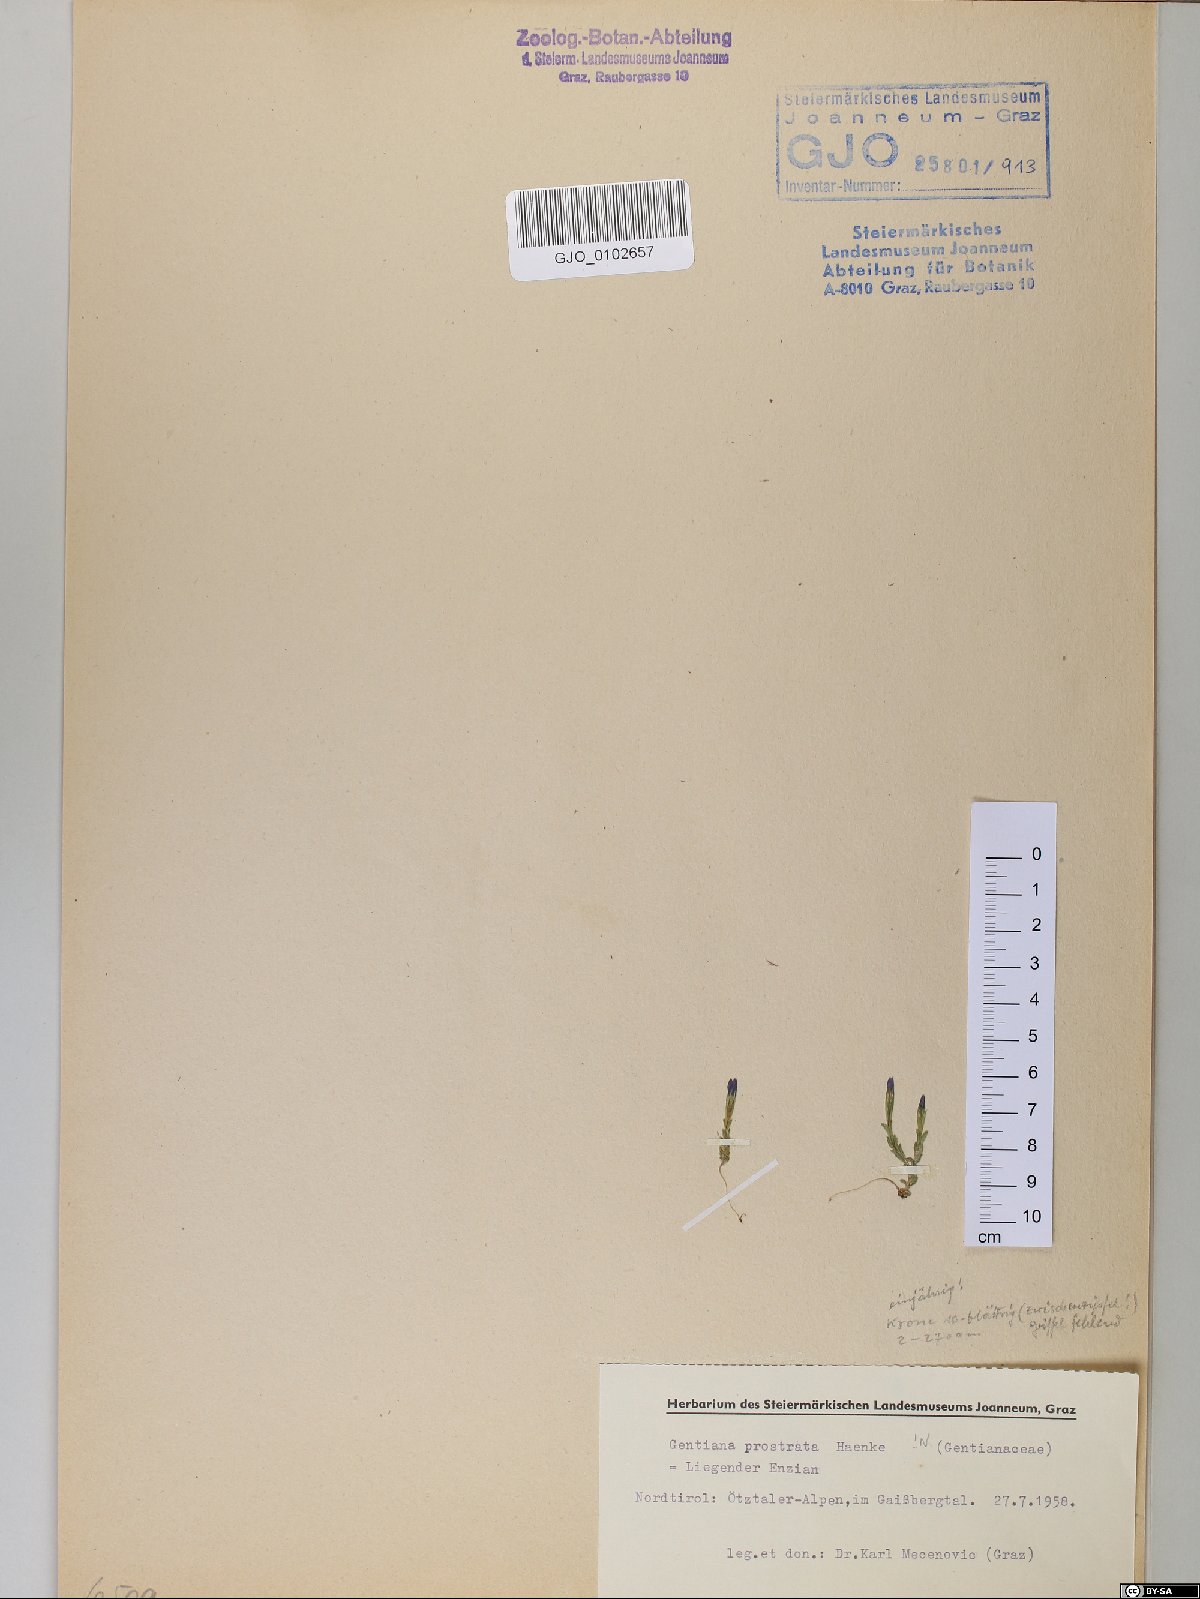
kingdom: Plantae
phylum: Tracheophyta
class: Magnoliopsida
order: Gentianales
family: Gentianaceae
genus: Gentiana
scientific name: Gentiana prostrata
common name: Moss gentian
